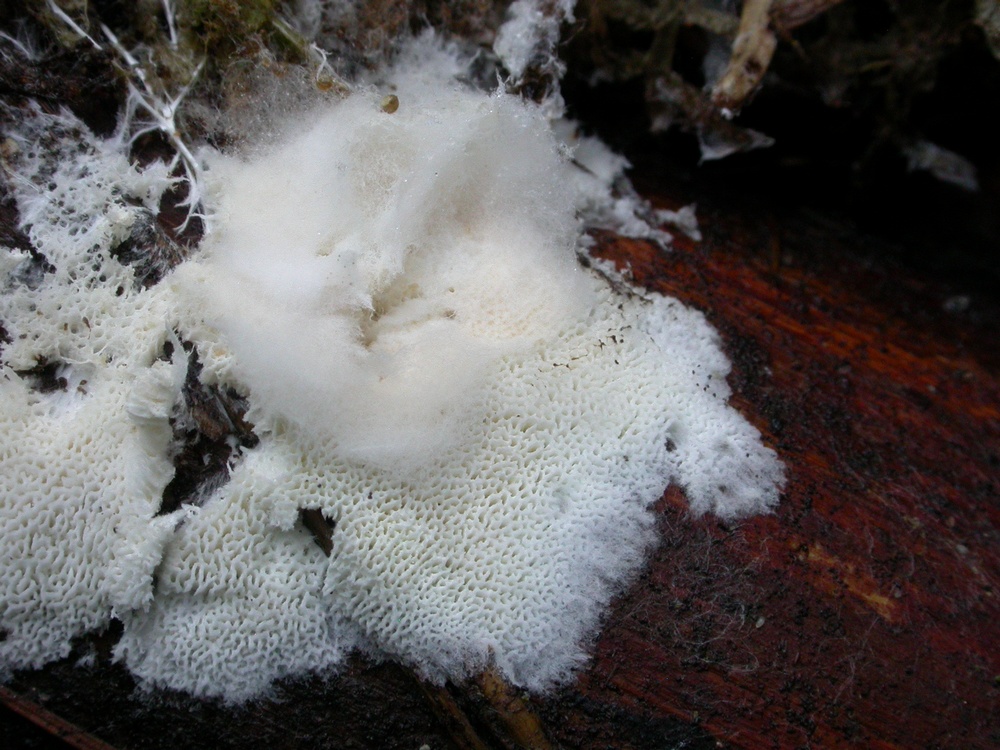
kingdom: Fungi
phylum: Basidiomycota
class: Agaricomycetes
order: Trechisporales
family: Sistotremataceae
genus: Trechispora
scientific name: Trechispora mollusca
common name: pyramide-vathinde
